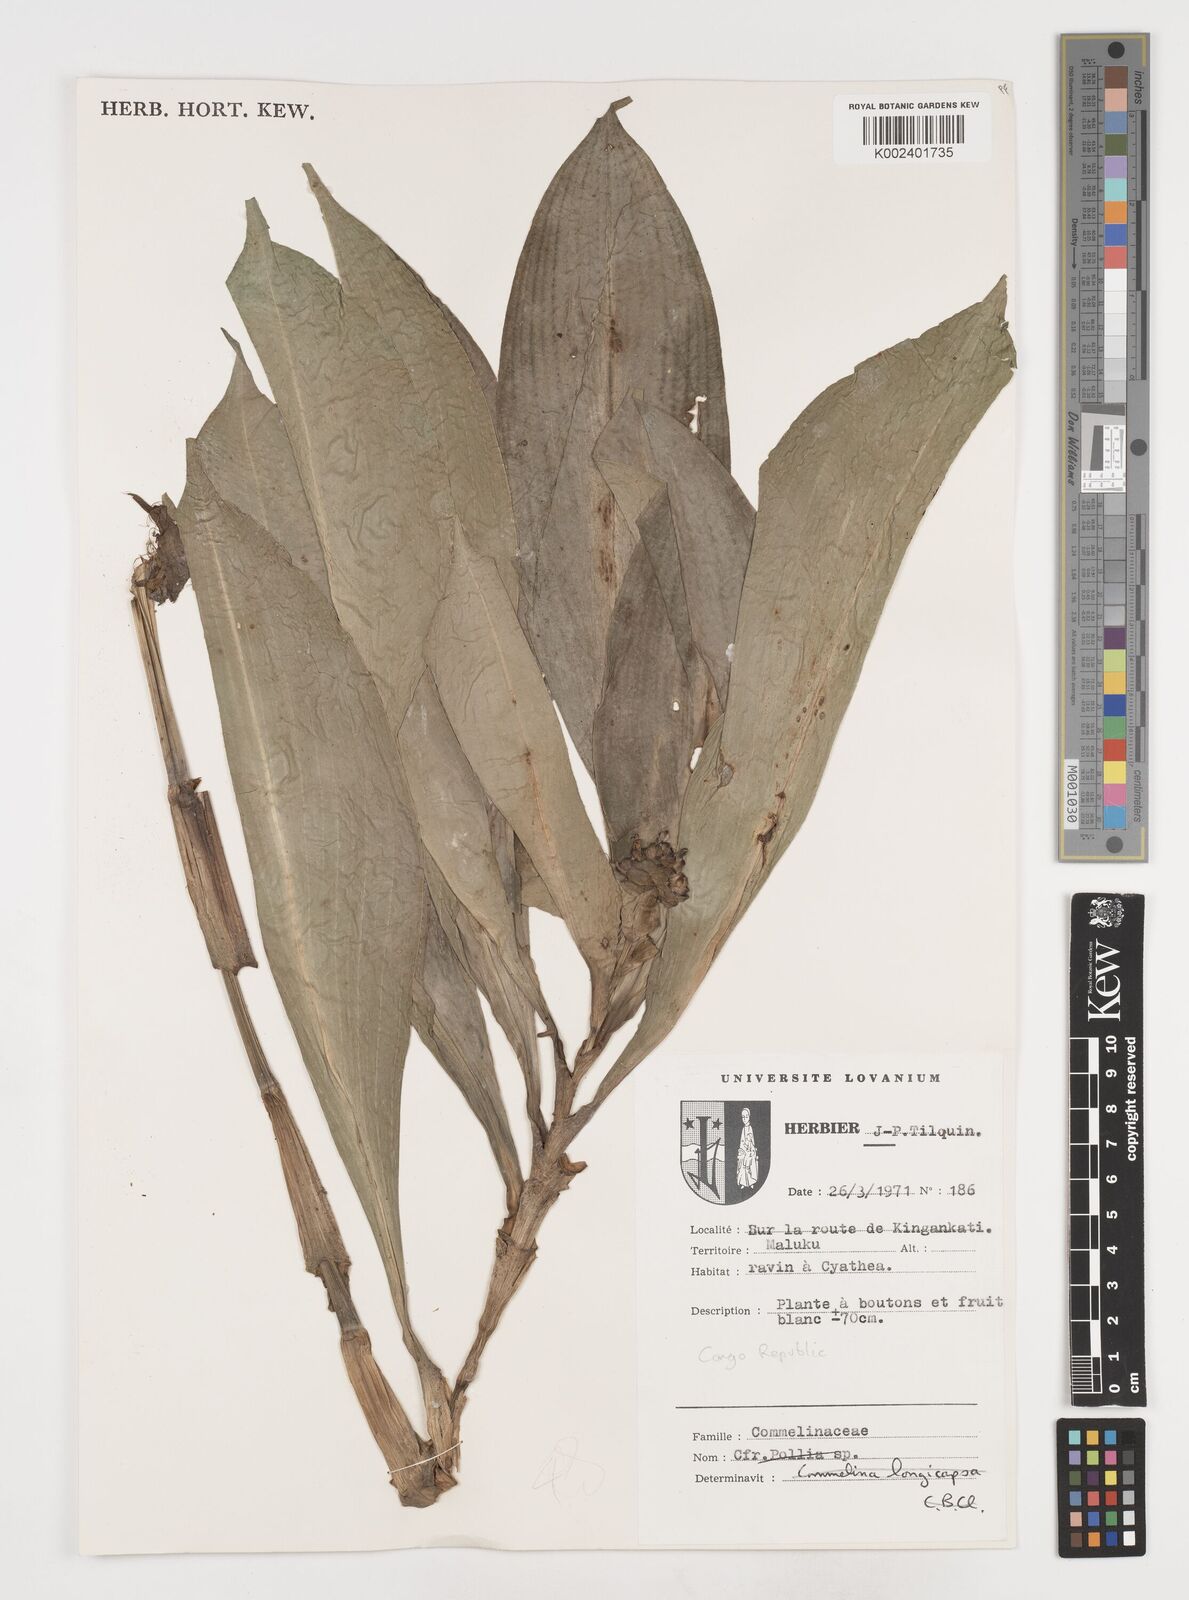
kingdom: Plantae
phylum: Tracheophyta
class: Liliopsida
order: Commelinales
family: Commelinaceae
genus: Pollia
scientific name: Pollia condensata
